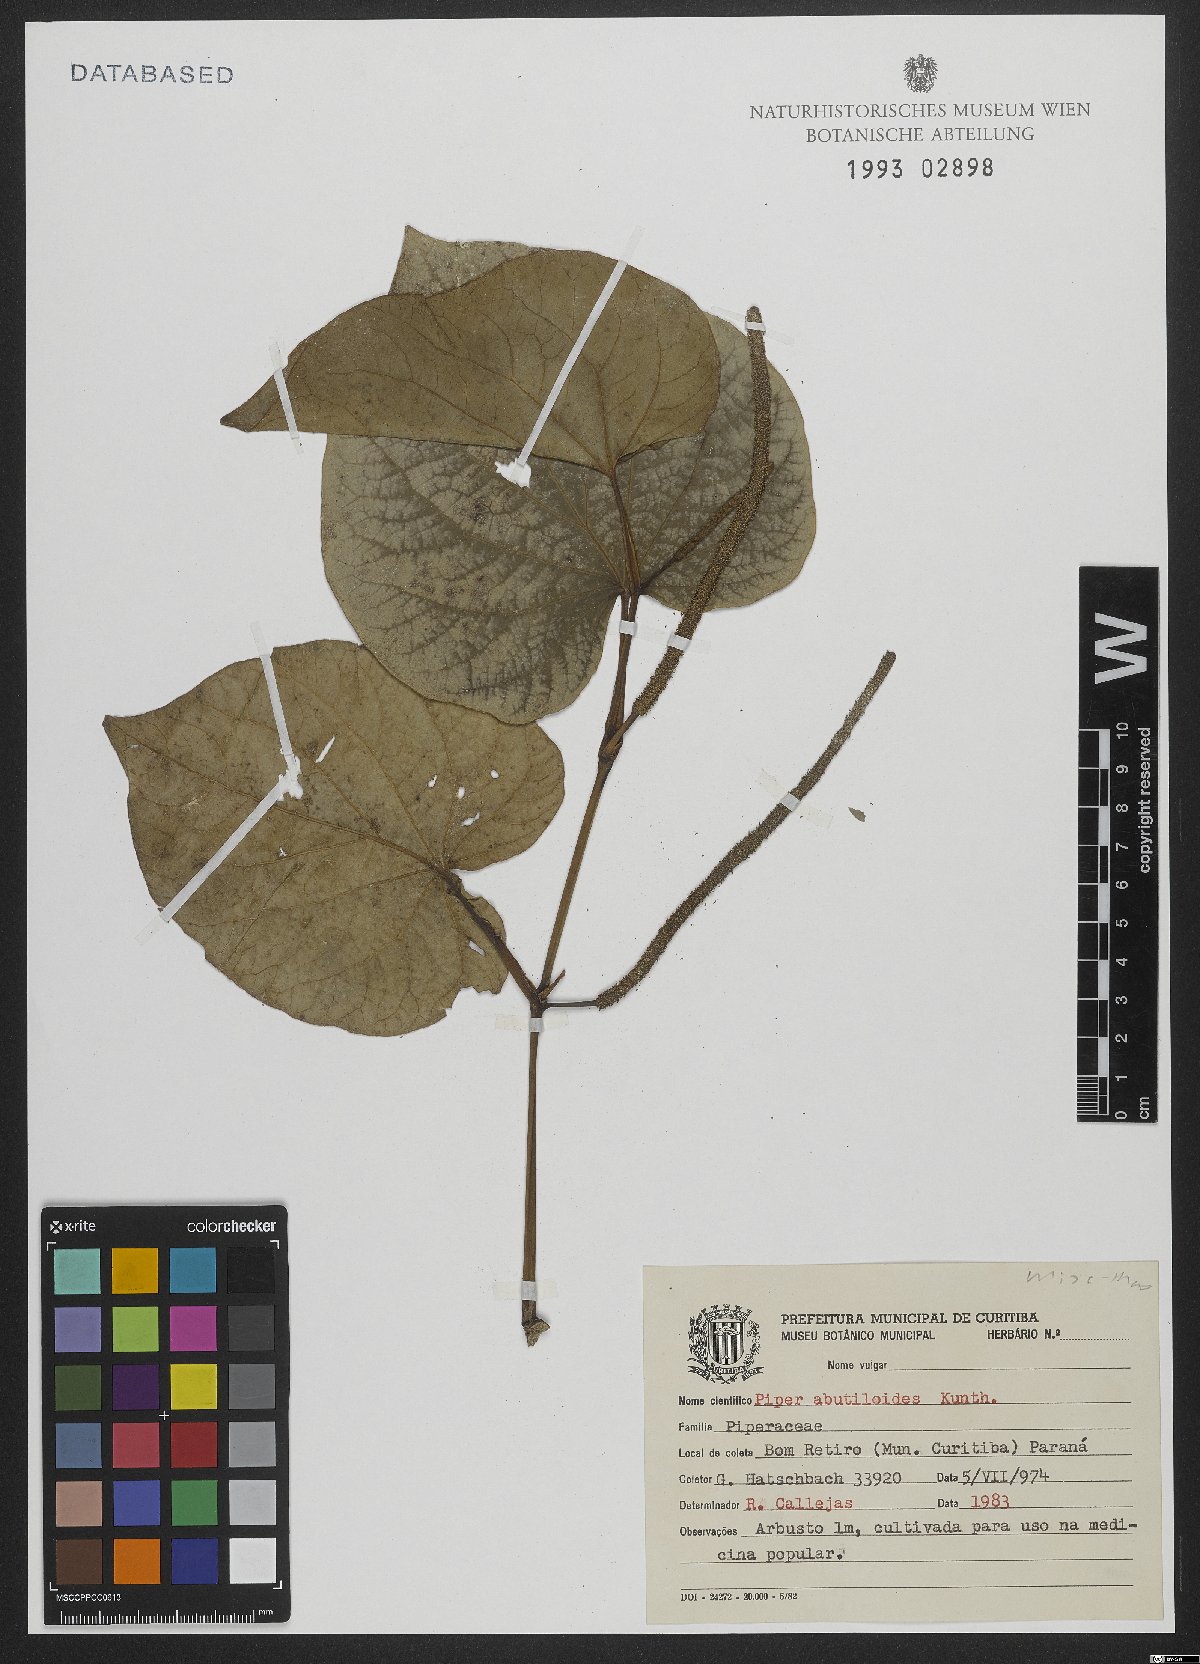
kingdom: Plantae
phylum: Tracheophyta
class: Magnoliopsida
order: Piperales
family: Piperaceae
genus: Piper
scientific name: Piper abutiloides
